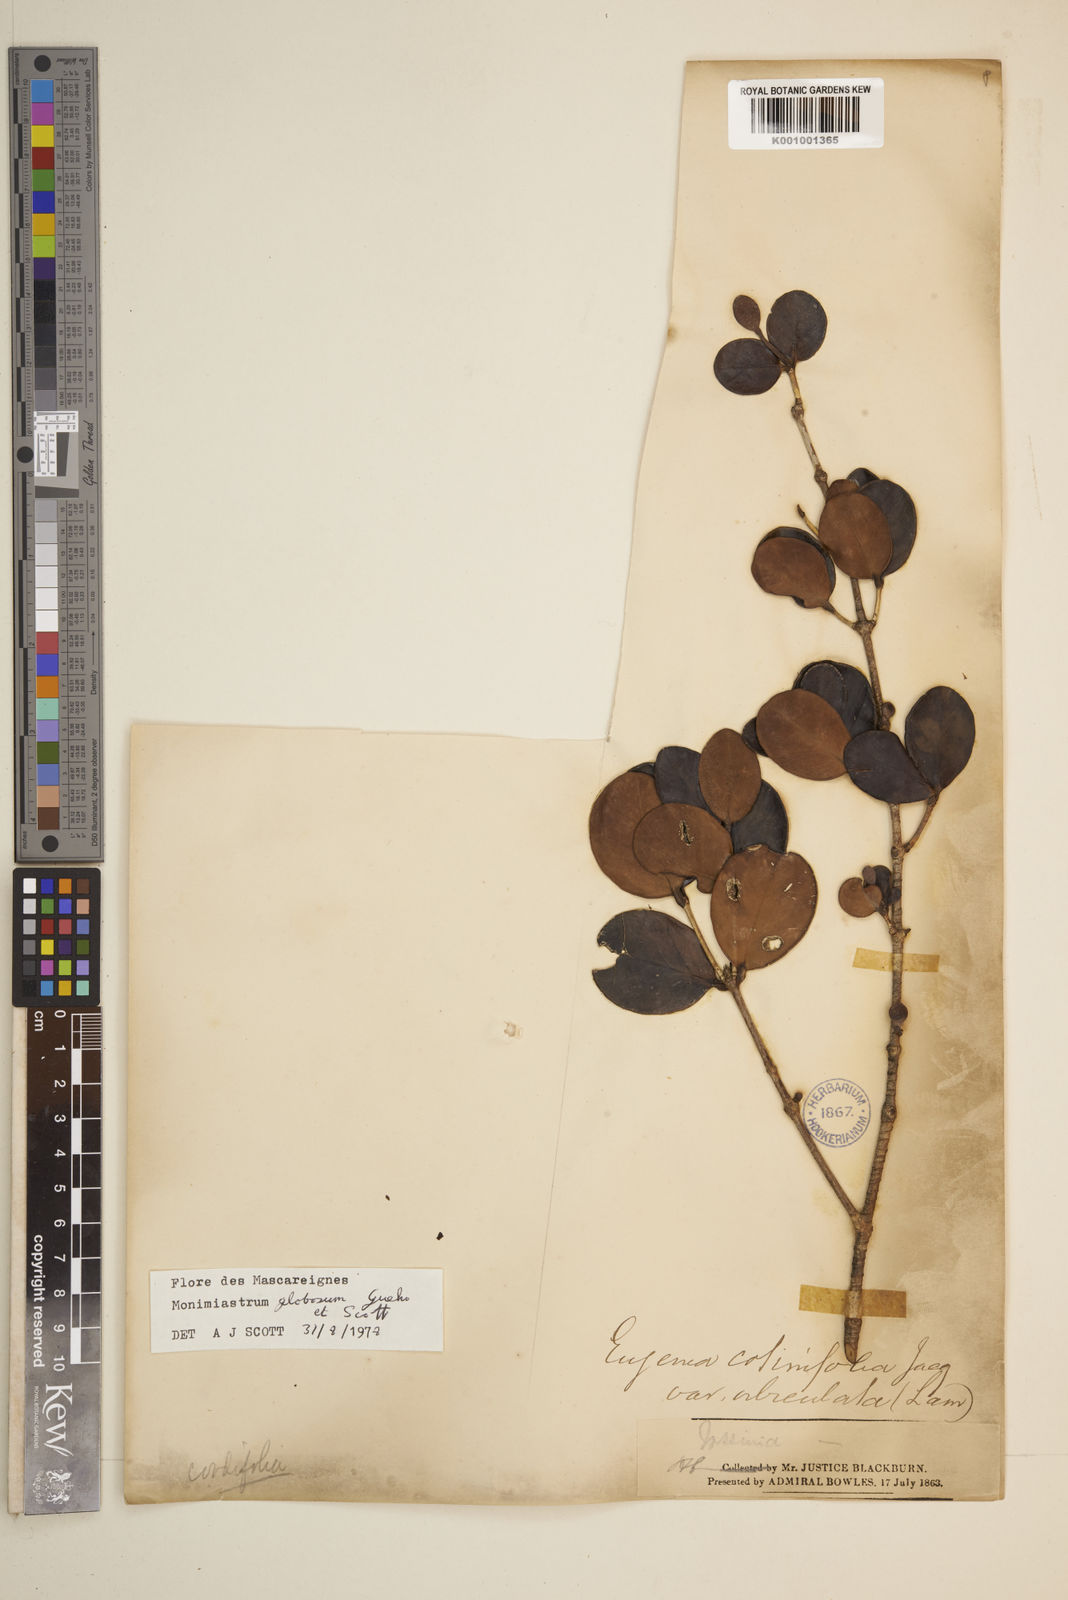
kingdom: Plantae
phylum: Tracheophyta
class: Magnoliopsida
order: Myrtales
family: Myrtaceae
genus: Eugenia
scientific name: Eugenia kanakana
